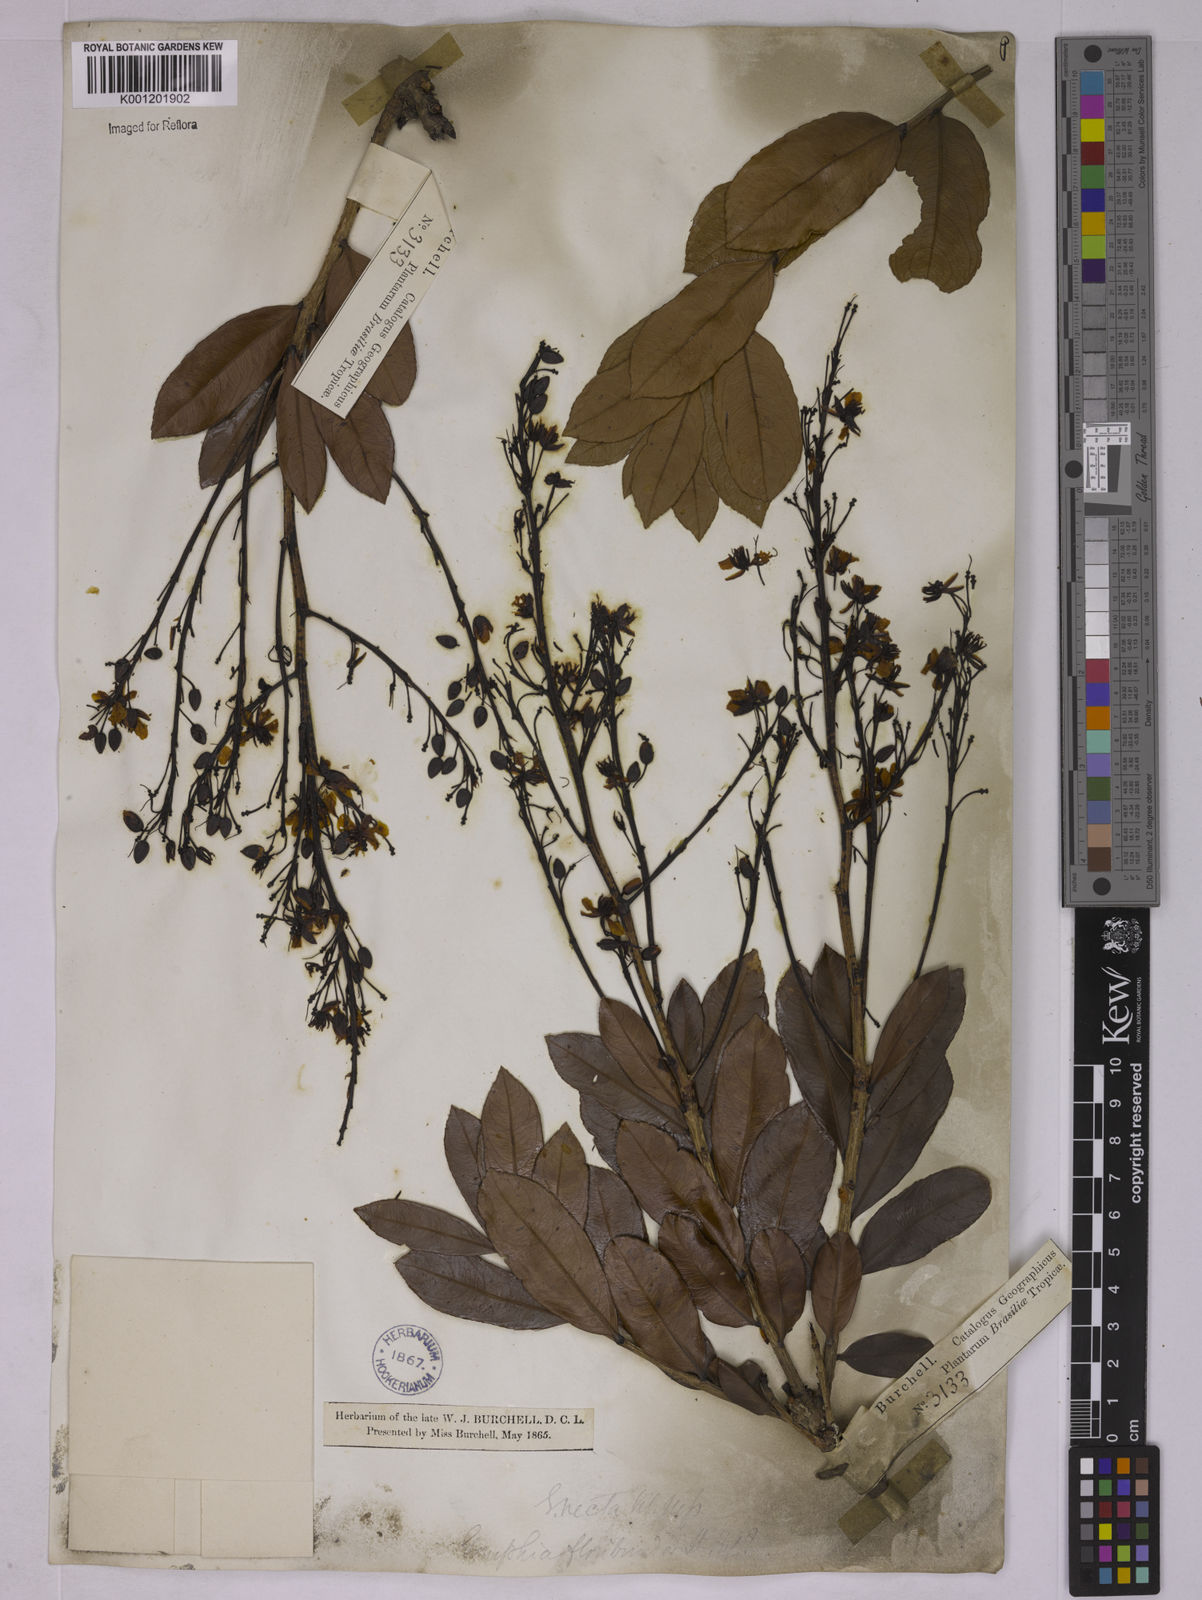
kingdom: Plantae
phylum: Tracheophyta
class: Magnoliopsida
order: Malpighiales
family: Ochnaceae
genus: Ouratea
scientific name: Ouratea floribunda
